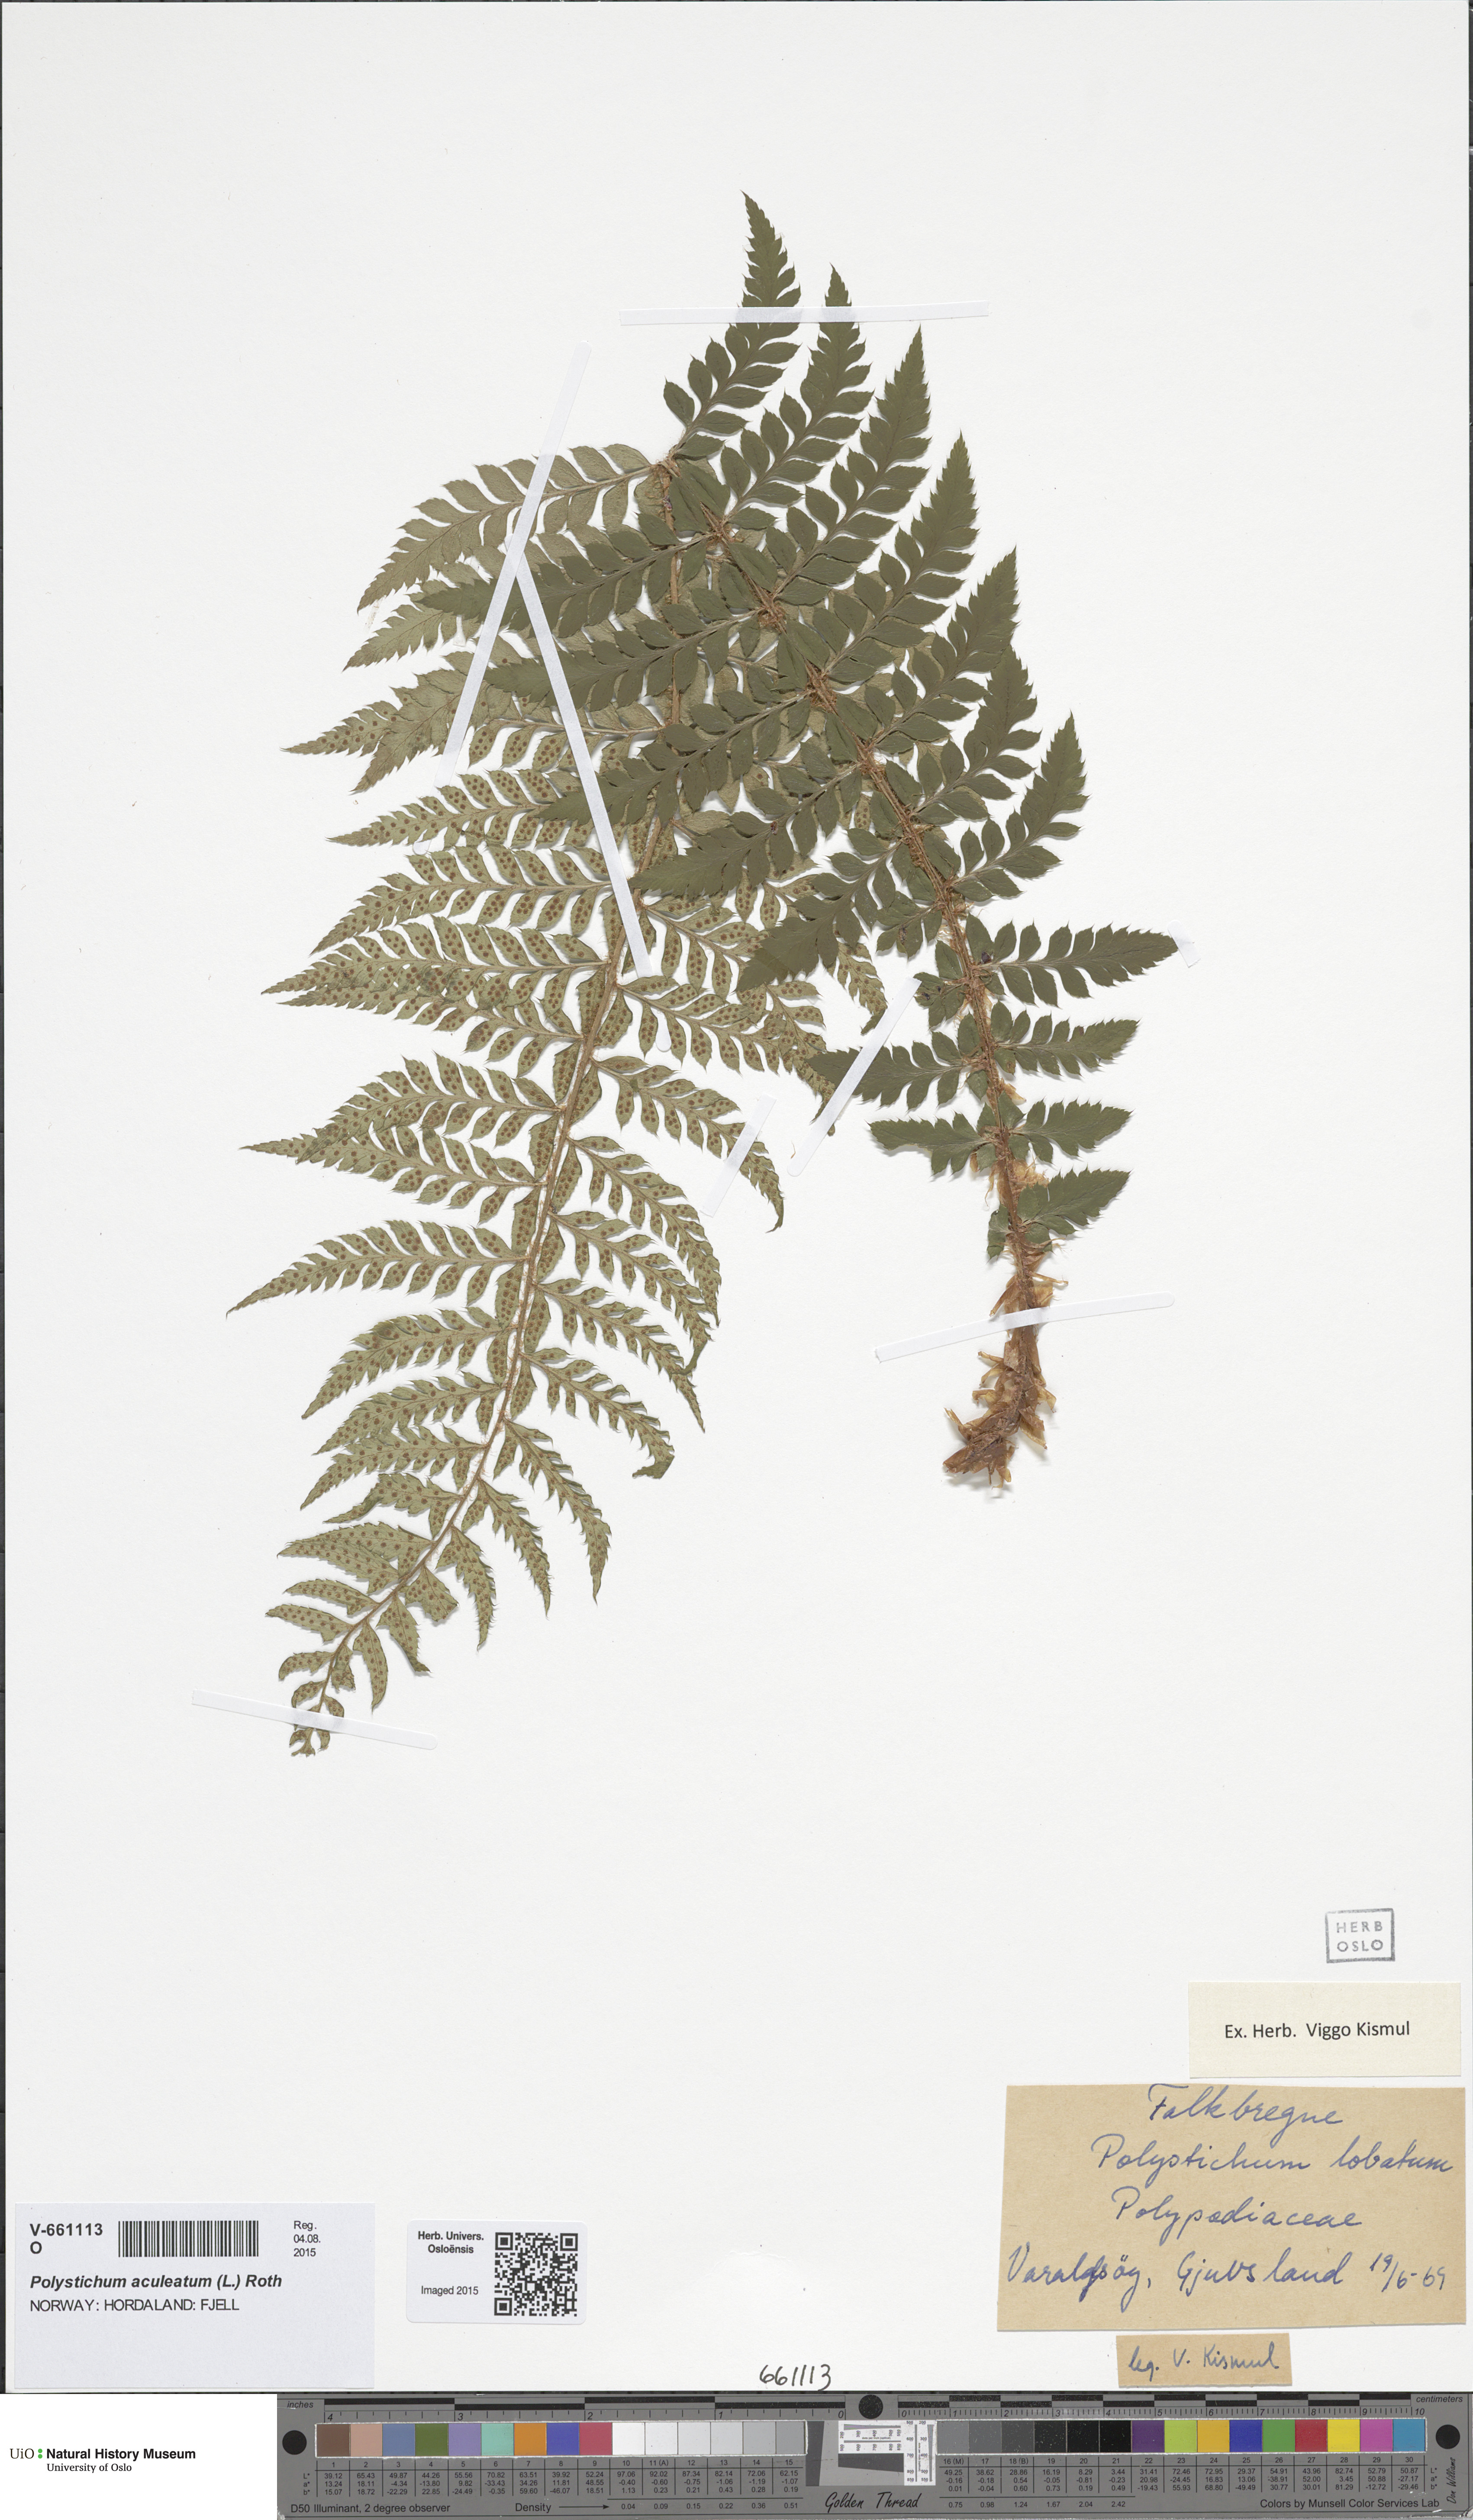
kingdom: Plantae
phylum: Tracheophyta
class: Polypodiopsida
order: Polypodiales
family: Dryopteridaceae
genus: Polystichum
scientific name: Polystichum aculeatum
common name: Hard shield-fern
